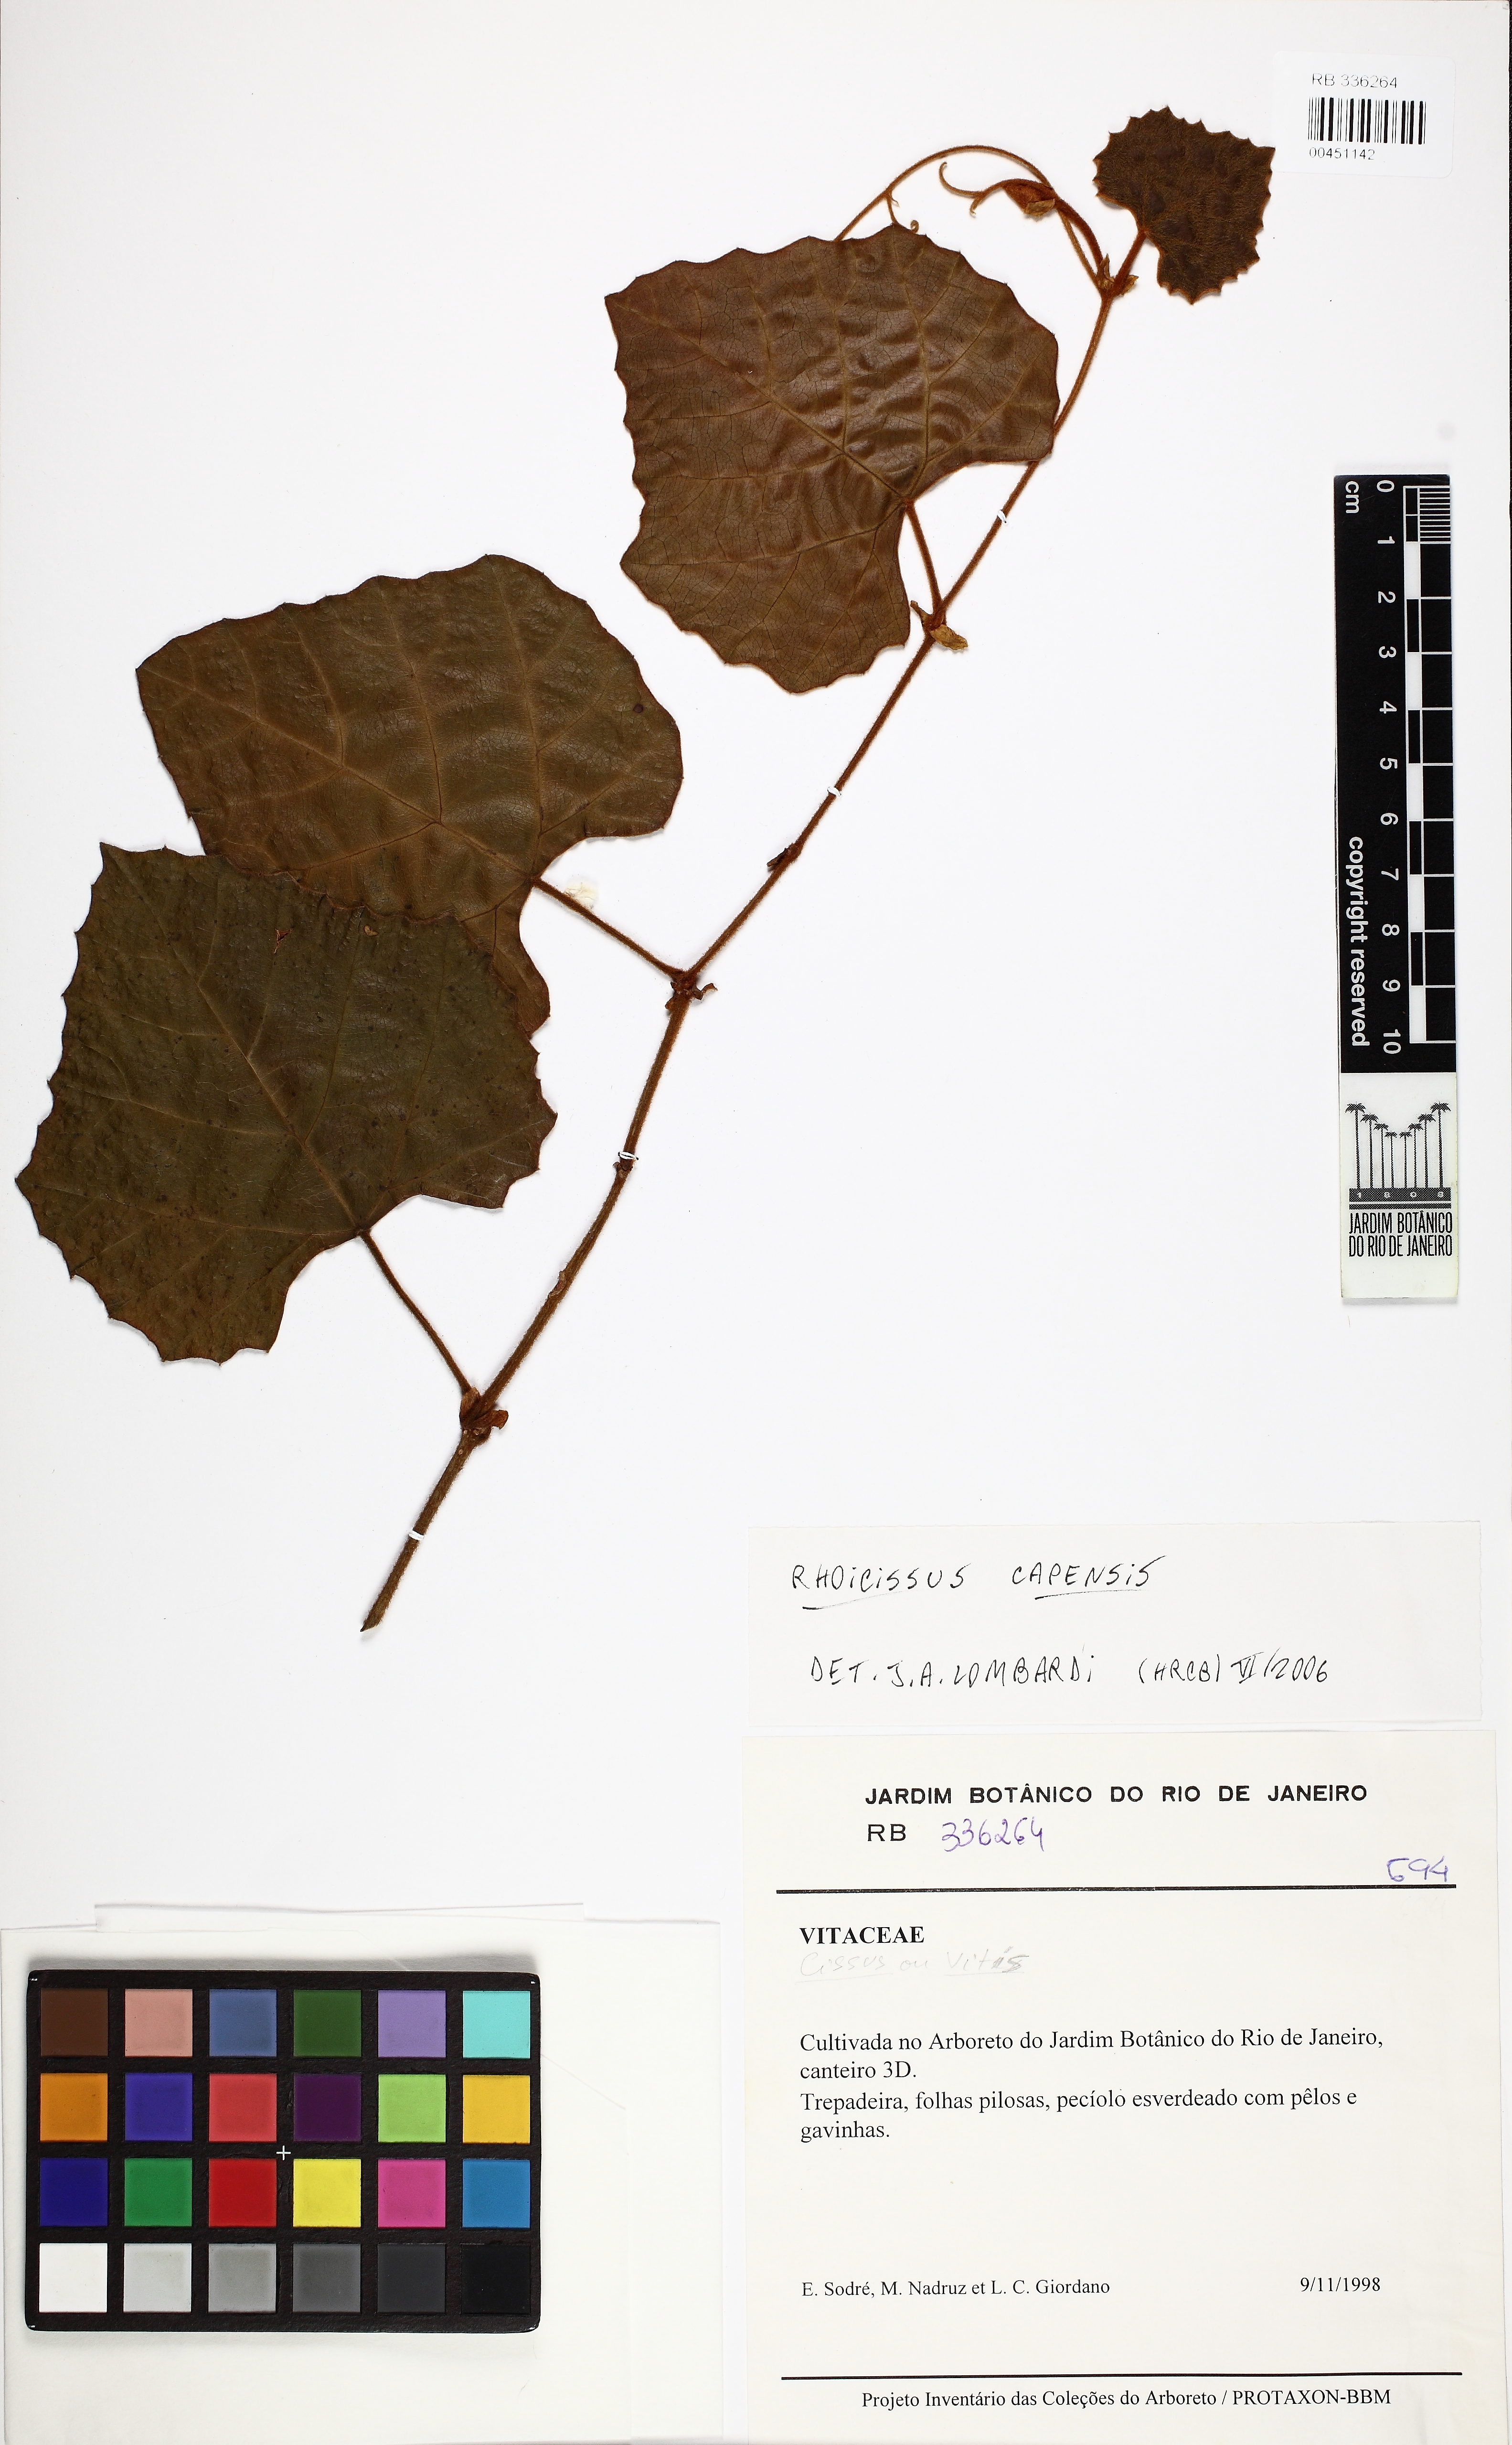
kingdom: Plantae
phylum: Tracheophyta
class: Magnoliopsida
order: Vitales
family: Vitaceae
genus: Rhoicissus
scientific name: Rhoicissus tomentosa
